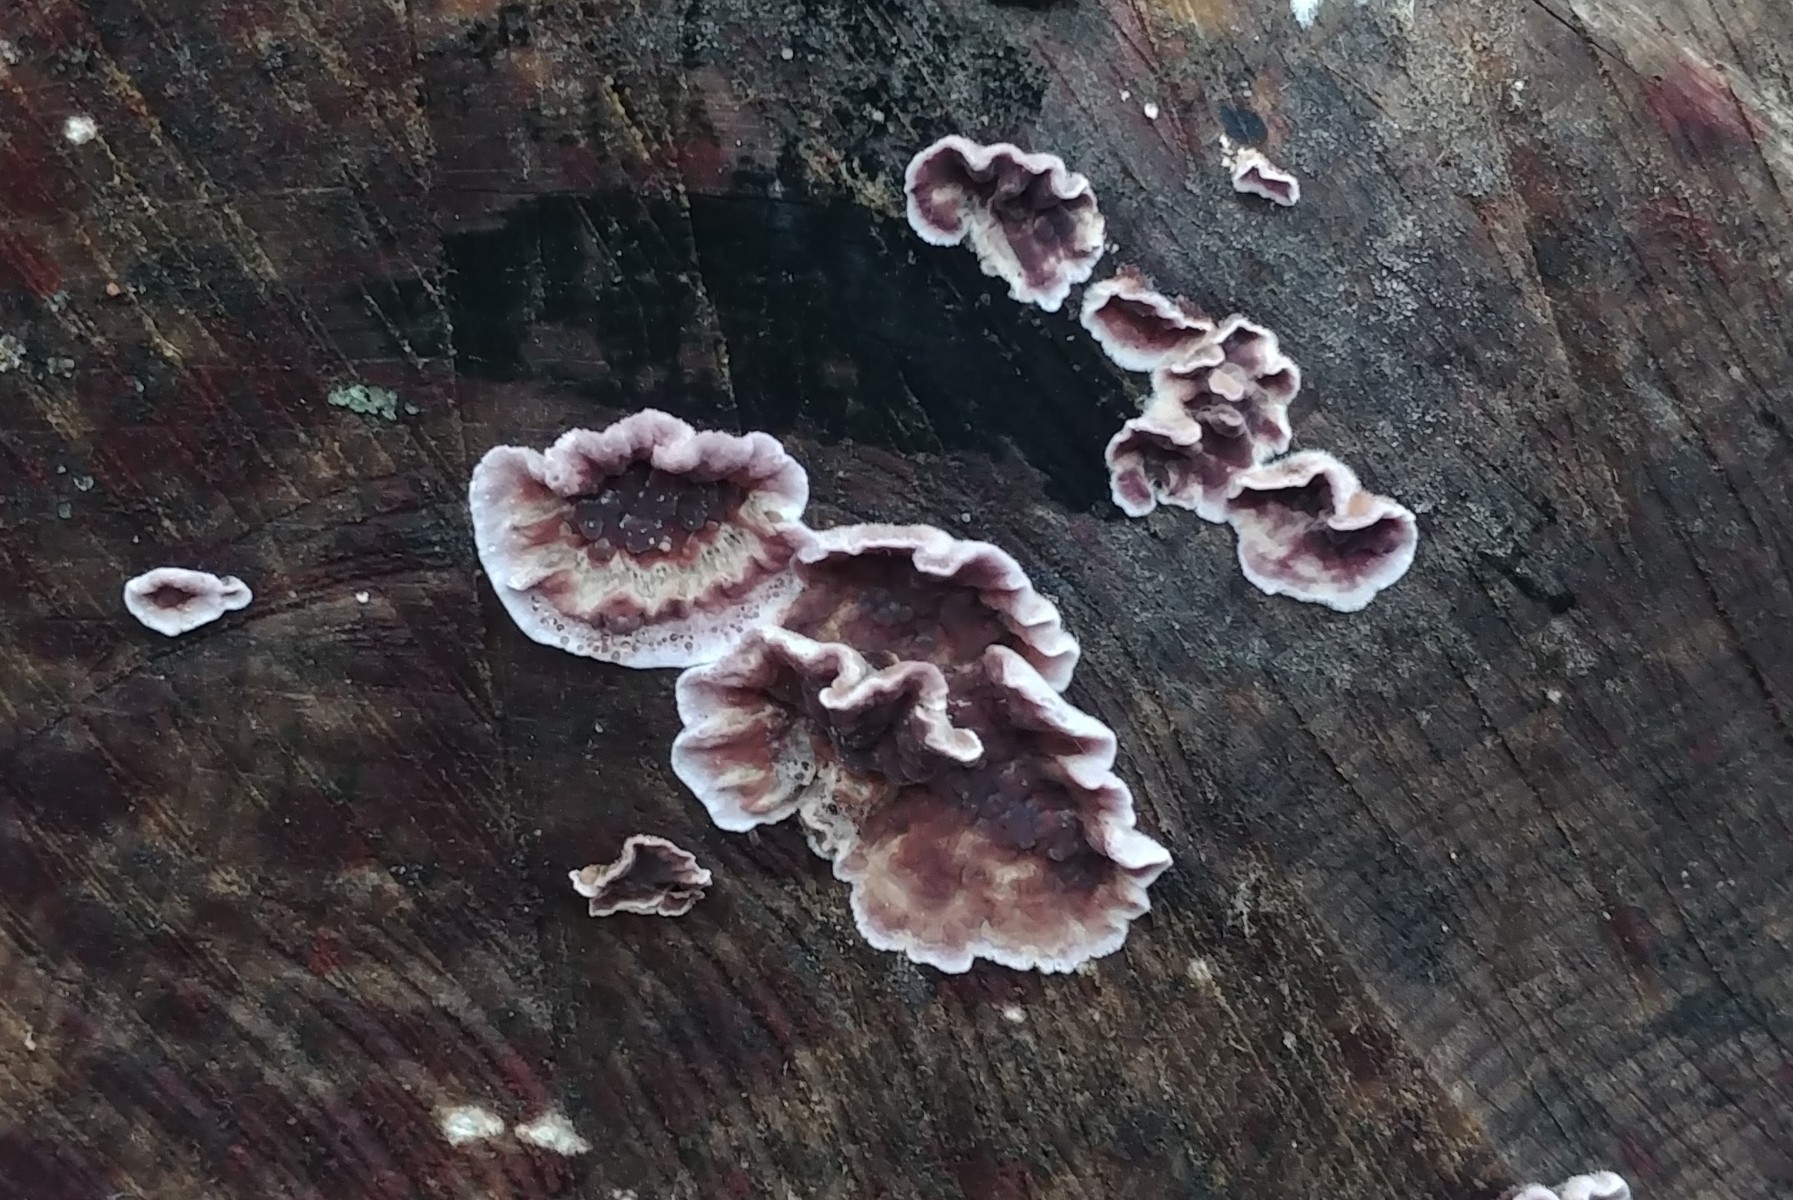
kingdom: Fungi
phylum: Basidiomycota
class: Agaricomycetes
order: Agaricales
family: Cyphellaceae
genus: Chondrostereum
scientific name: Chondrostereum purpureum
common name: purpurlædersvamp
